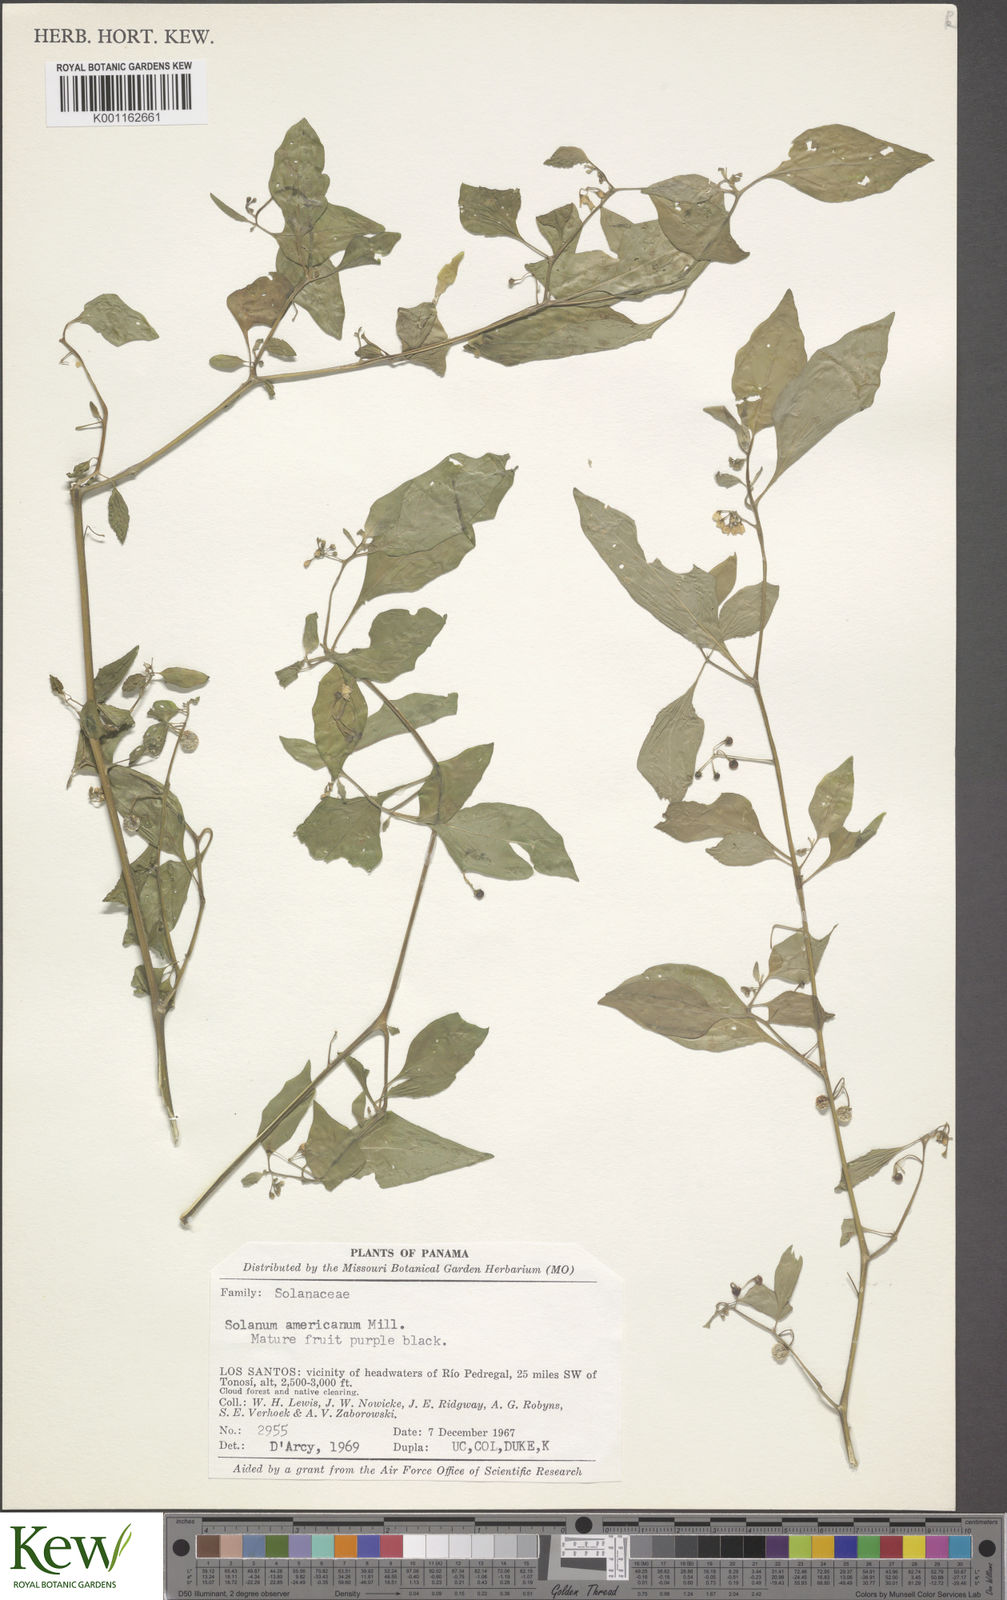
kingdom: Plantae
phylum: Tracheophyta
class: Magnoliopsida
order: Solanales
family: Solanaceae
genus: Solanum
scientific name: Solanum americanum
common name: American black nightshade
